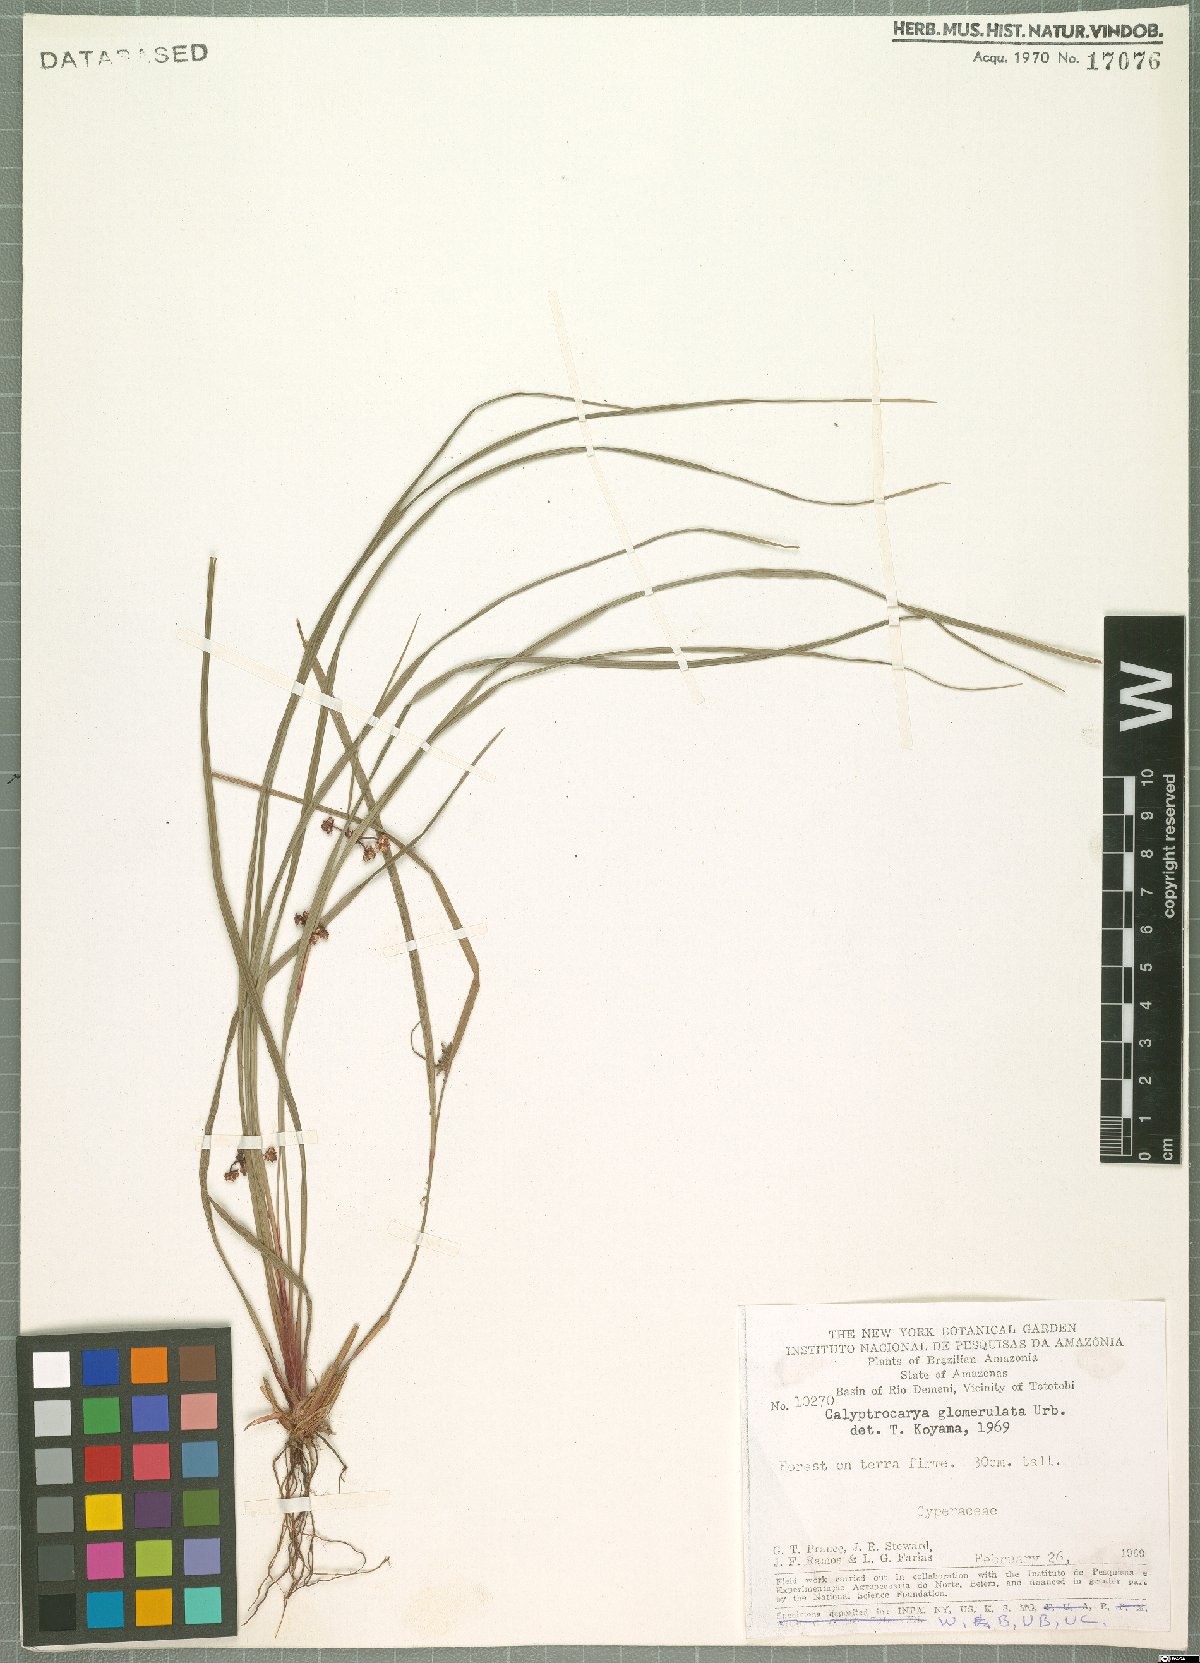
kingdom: Plantae
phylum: Tracheophyta
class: Liliopsida
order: Poales
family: Cyperaceae
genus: Calyptrocarya
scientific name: Calyptrocarya glomerulata
